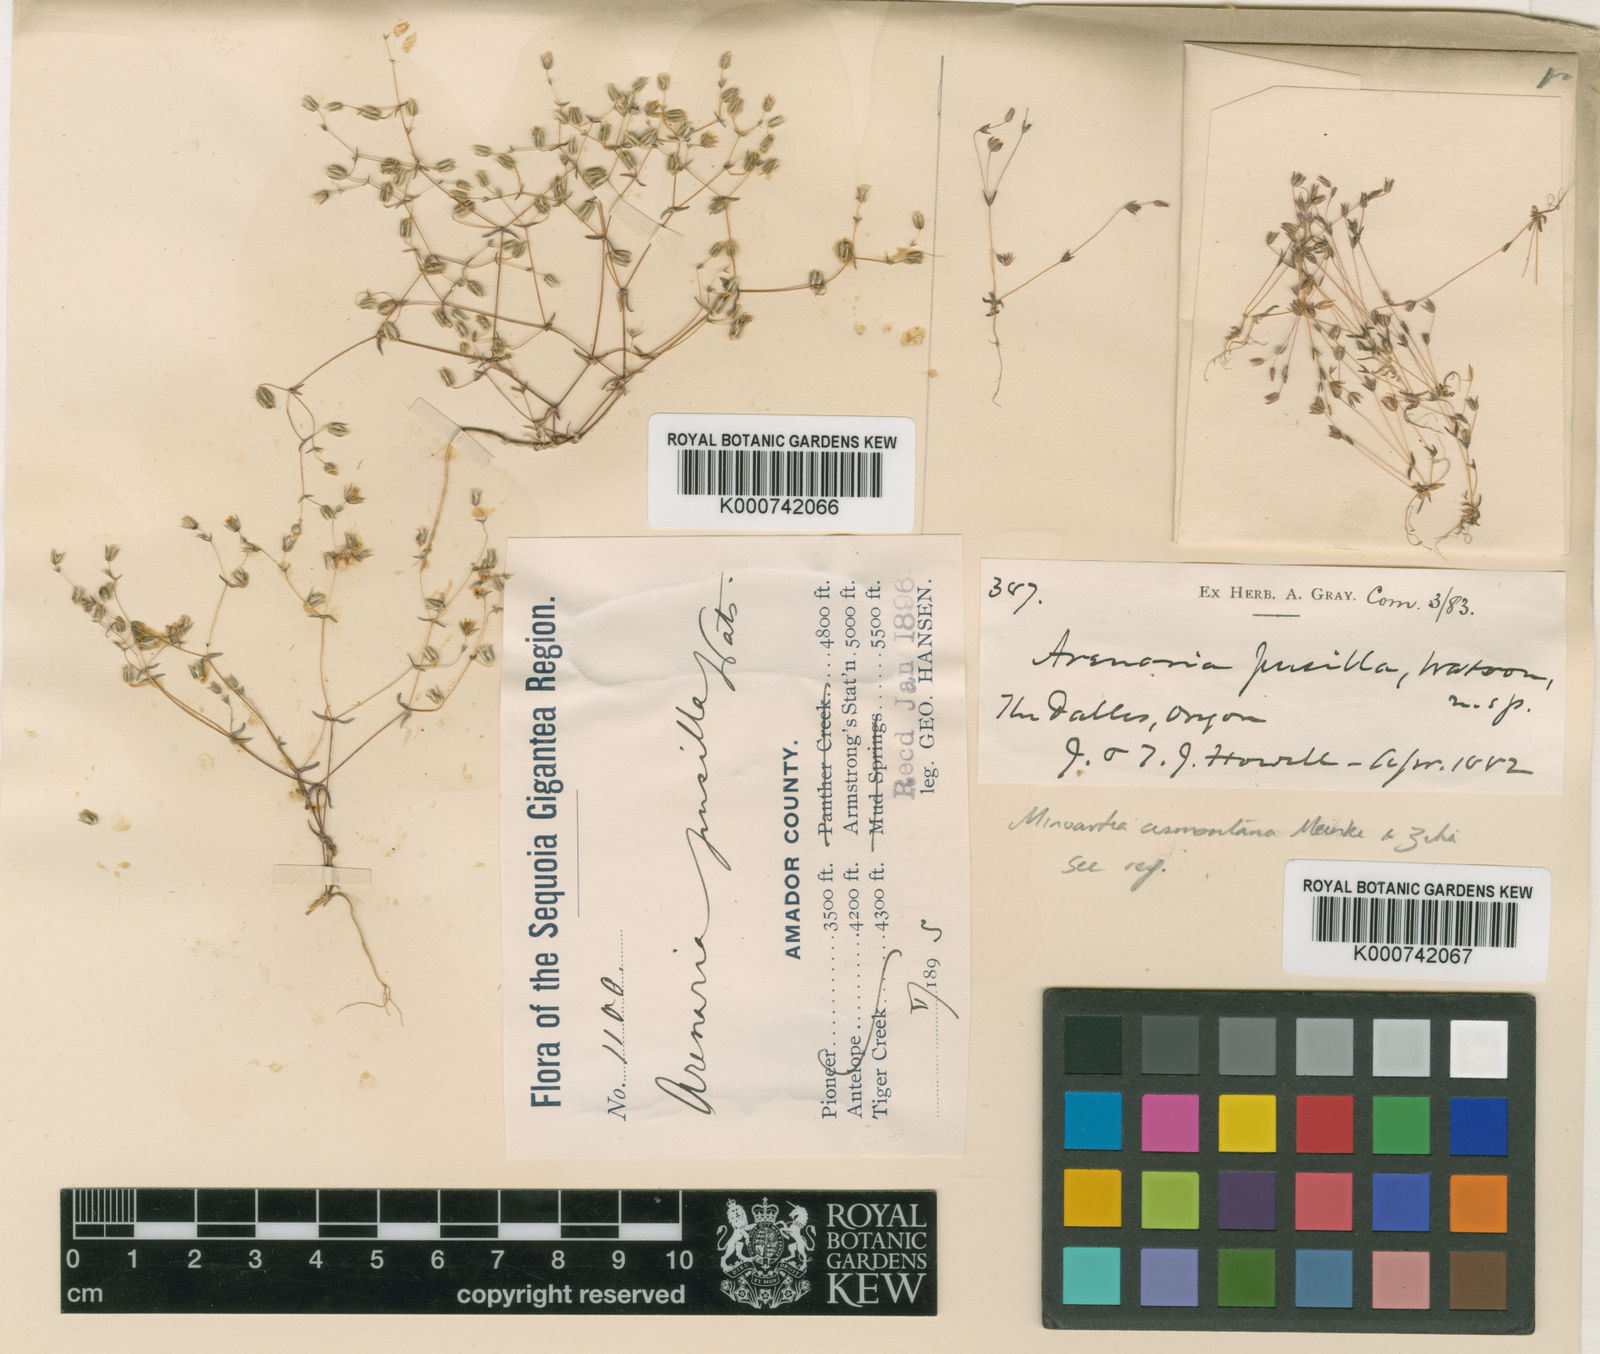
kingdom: Plantae
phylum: Tracheophyta
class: Magnoliopsida
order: Caryophyllales
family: Caryophyllaceae
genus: Sabulina
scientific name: Sabulina cismontana
